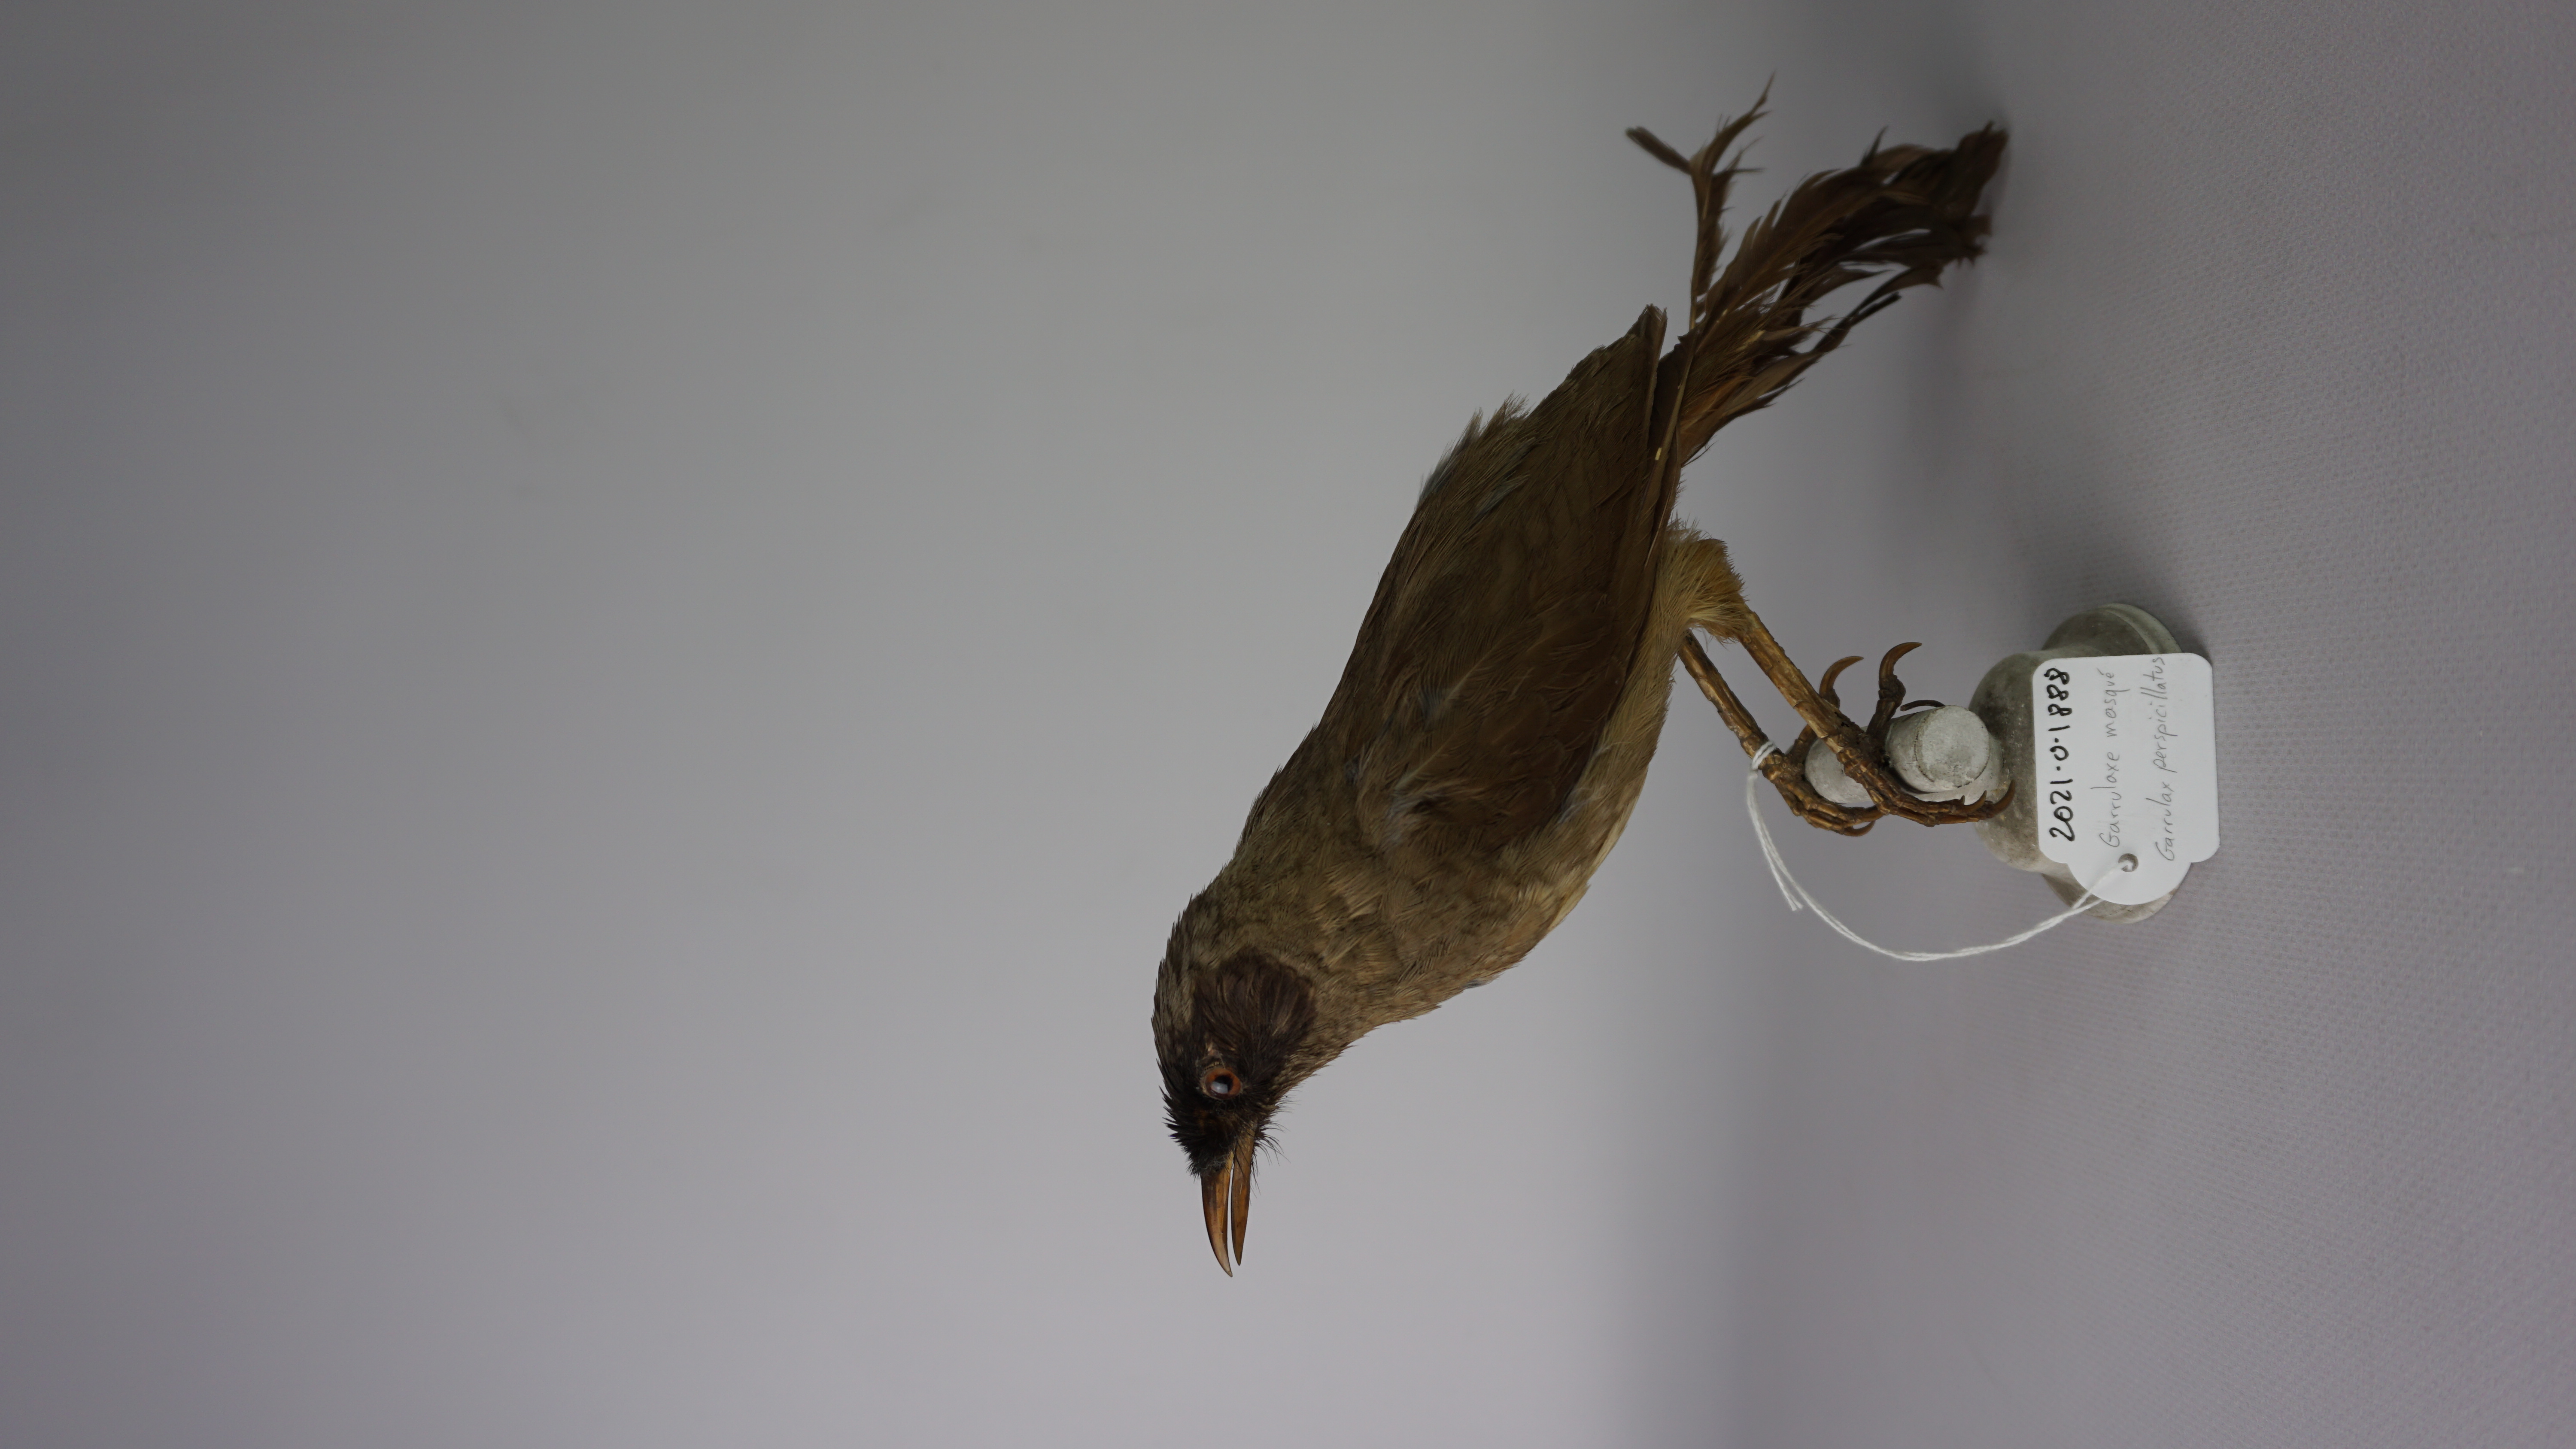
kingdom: Animalia
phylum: Chordata
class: Aves
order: Passeriformes
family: Leiothrichidae
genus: Garrulax
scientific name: Garrulax perspicillatus
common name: Masked laughingthrush
